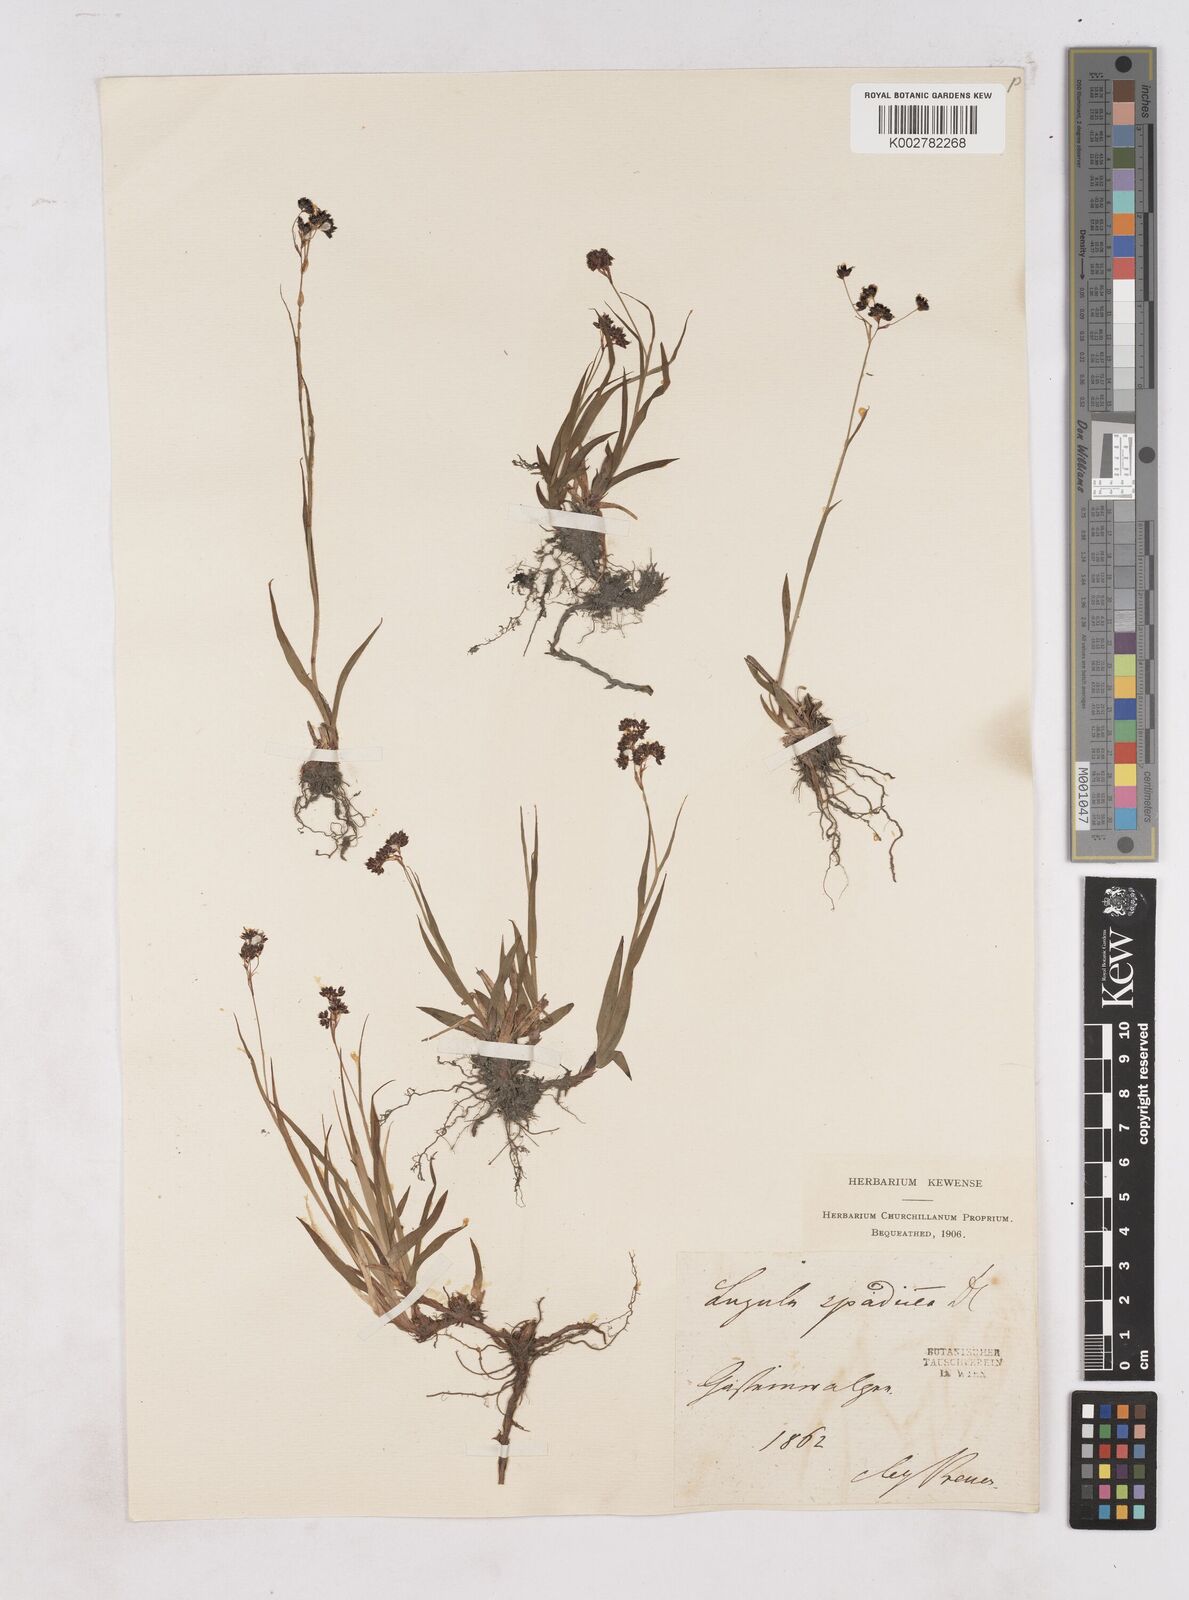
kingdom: Plantae
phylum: Tracheophyta
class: Liliopsida
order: Poales
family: Juncaceae
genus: Luzula
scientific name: Luzula alpinopilosa
